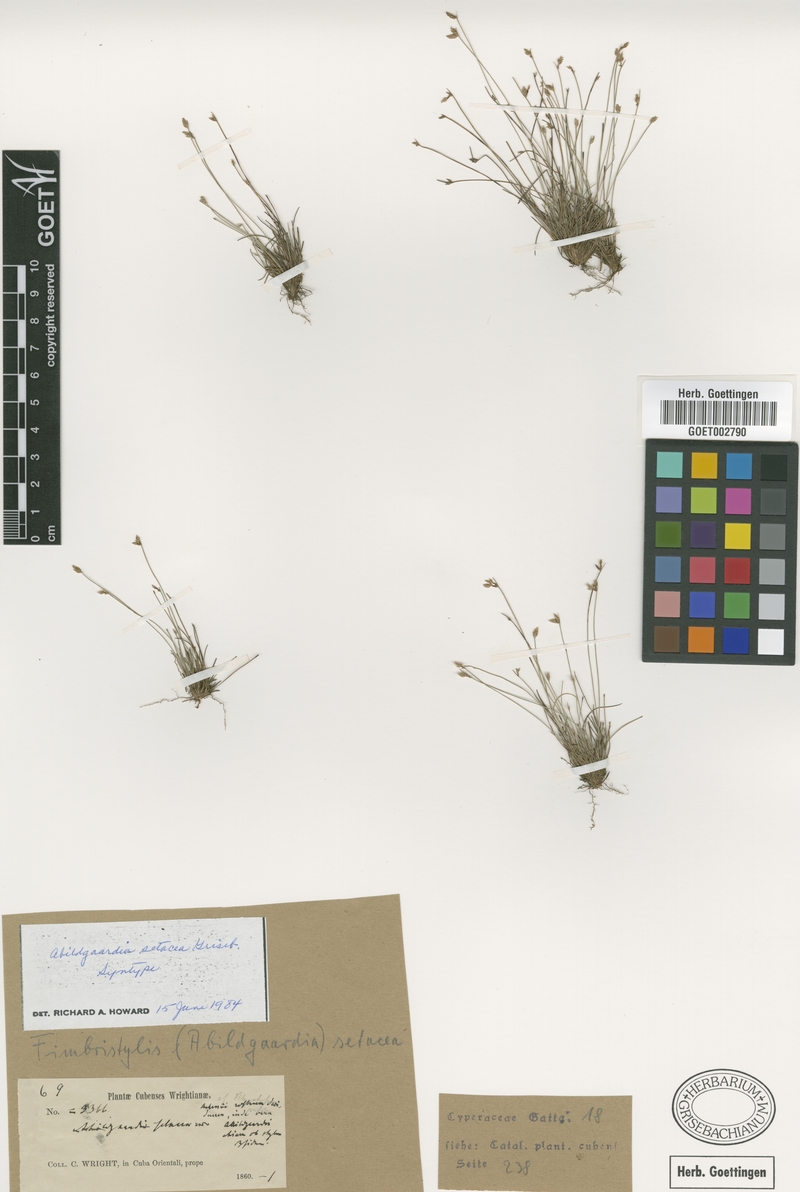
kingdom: Plantae
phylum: Tracheophyta
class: Liliopsida
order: Poales
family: Cyperaceae
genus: Bulbostylis
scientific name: Bulbostylis setacea
